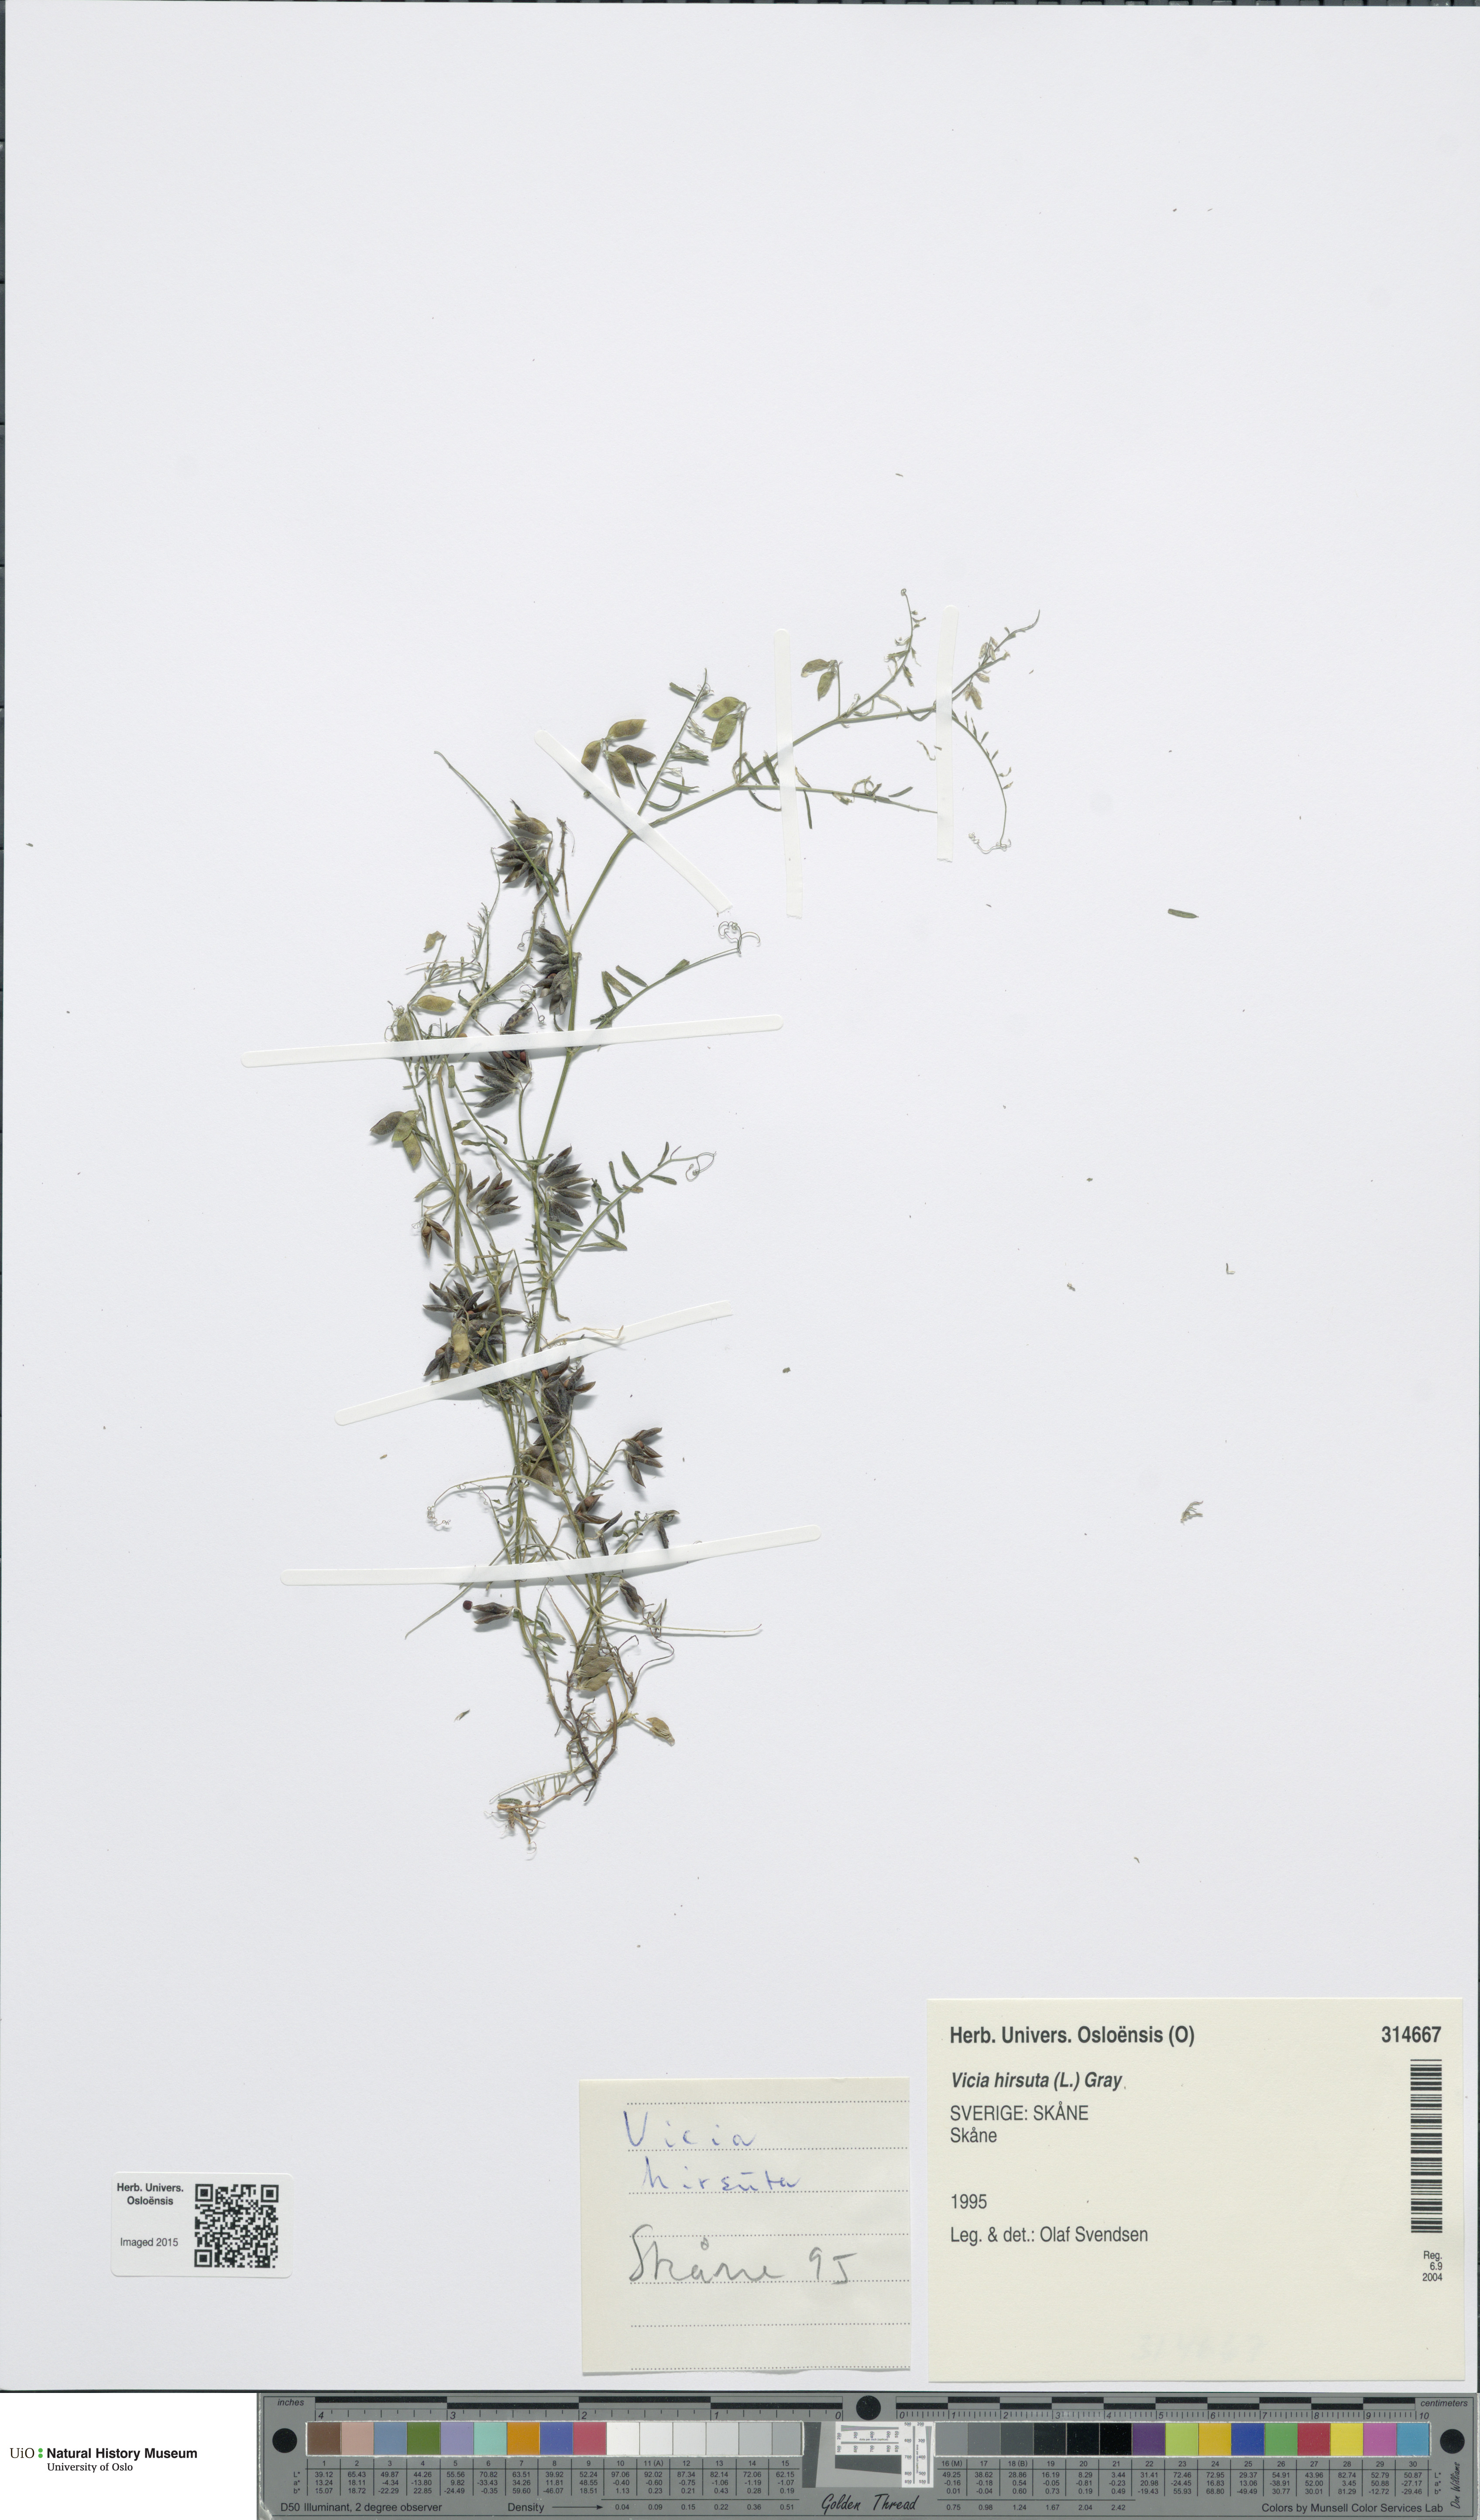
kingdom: Plantae
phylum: Tracheophyta
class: Magnoliopsida
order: Fabales
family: Fabaceae
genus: Vicia
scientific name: Vicia hirsuta
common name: Tiny vetch
